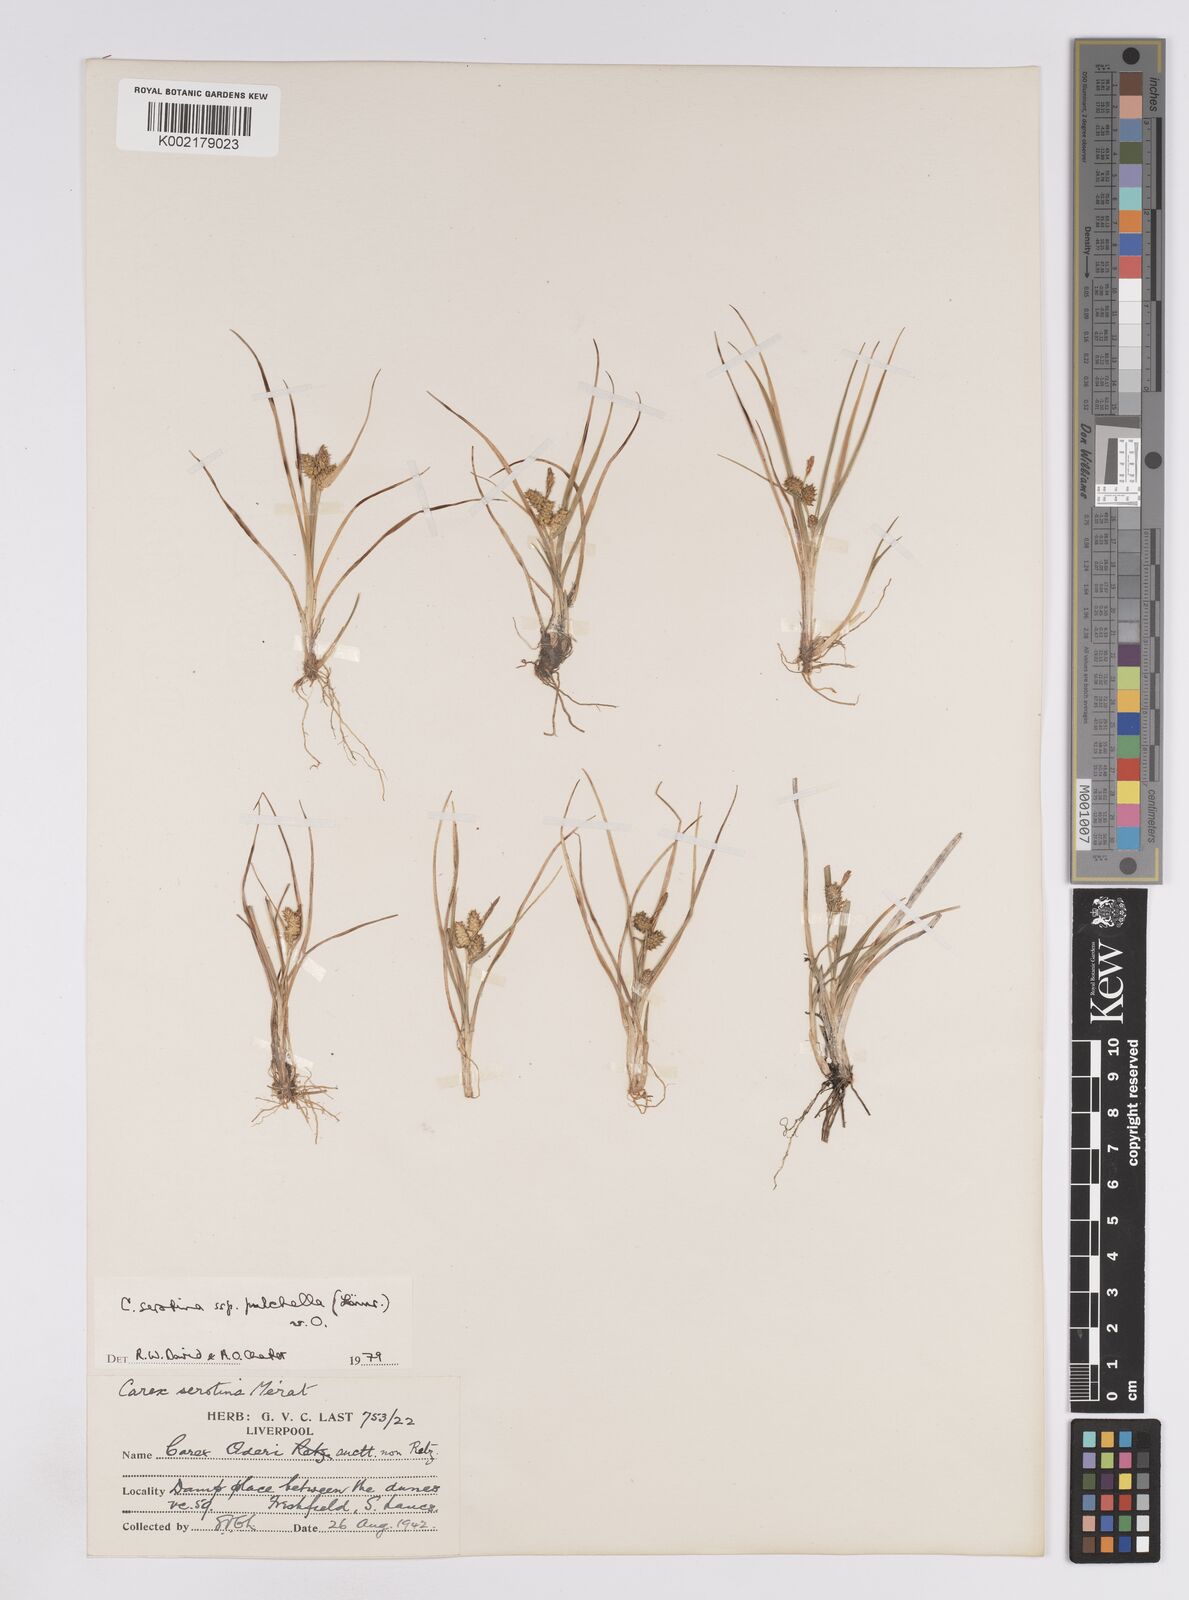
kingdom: Plantae
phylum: Tracheophyta
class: Liliopsida
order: Poales
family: Cyperaceae
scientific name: Cyperaceae
